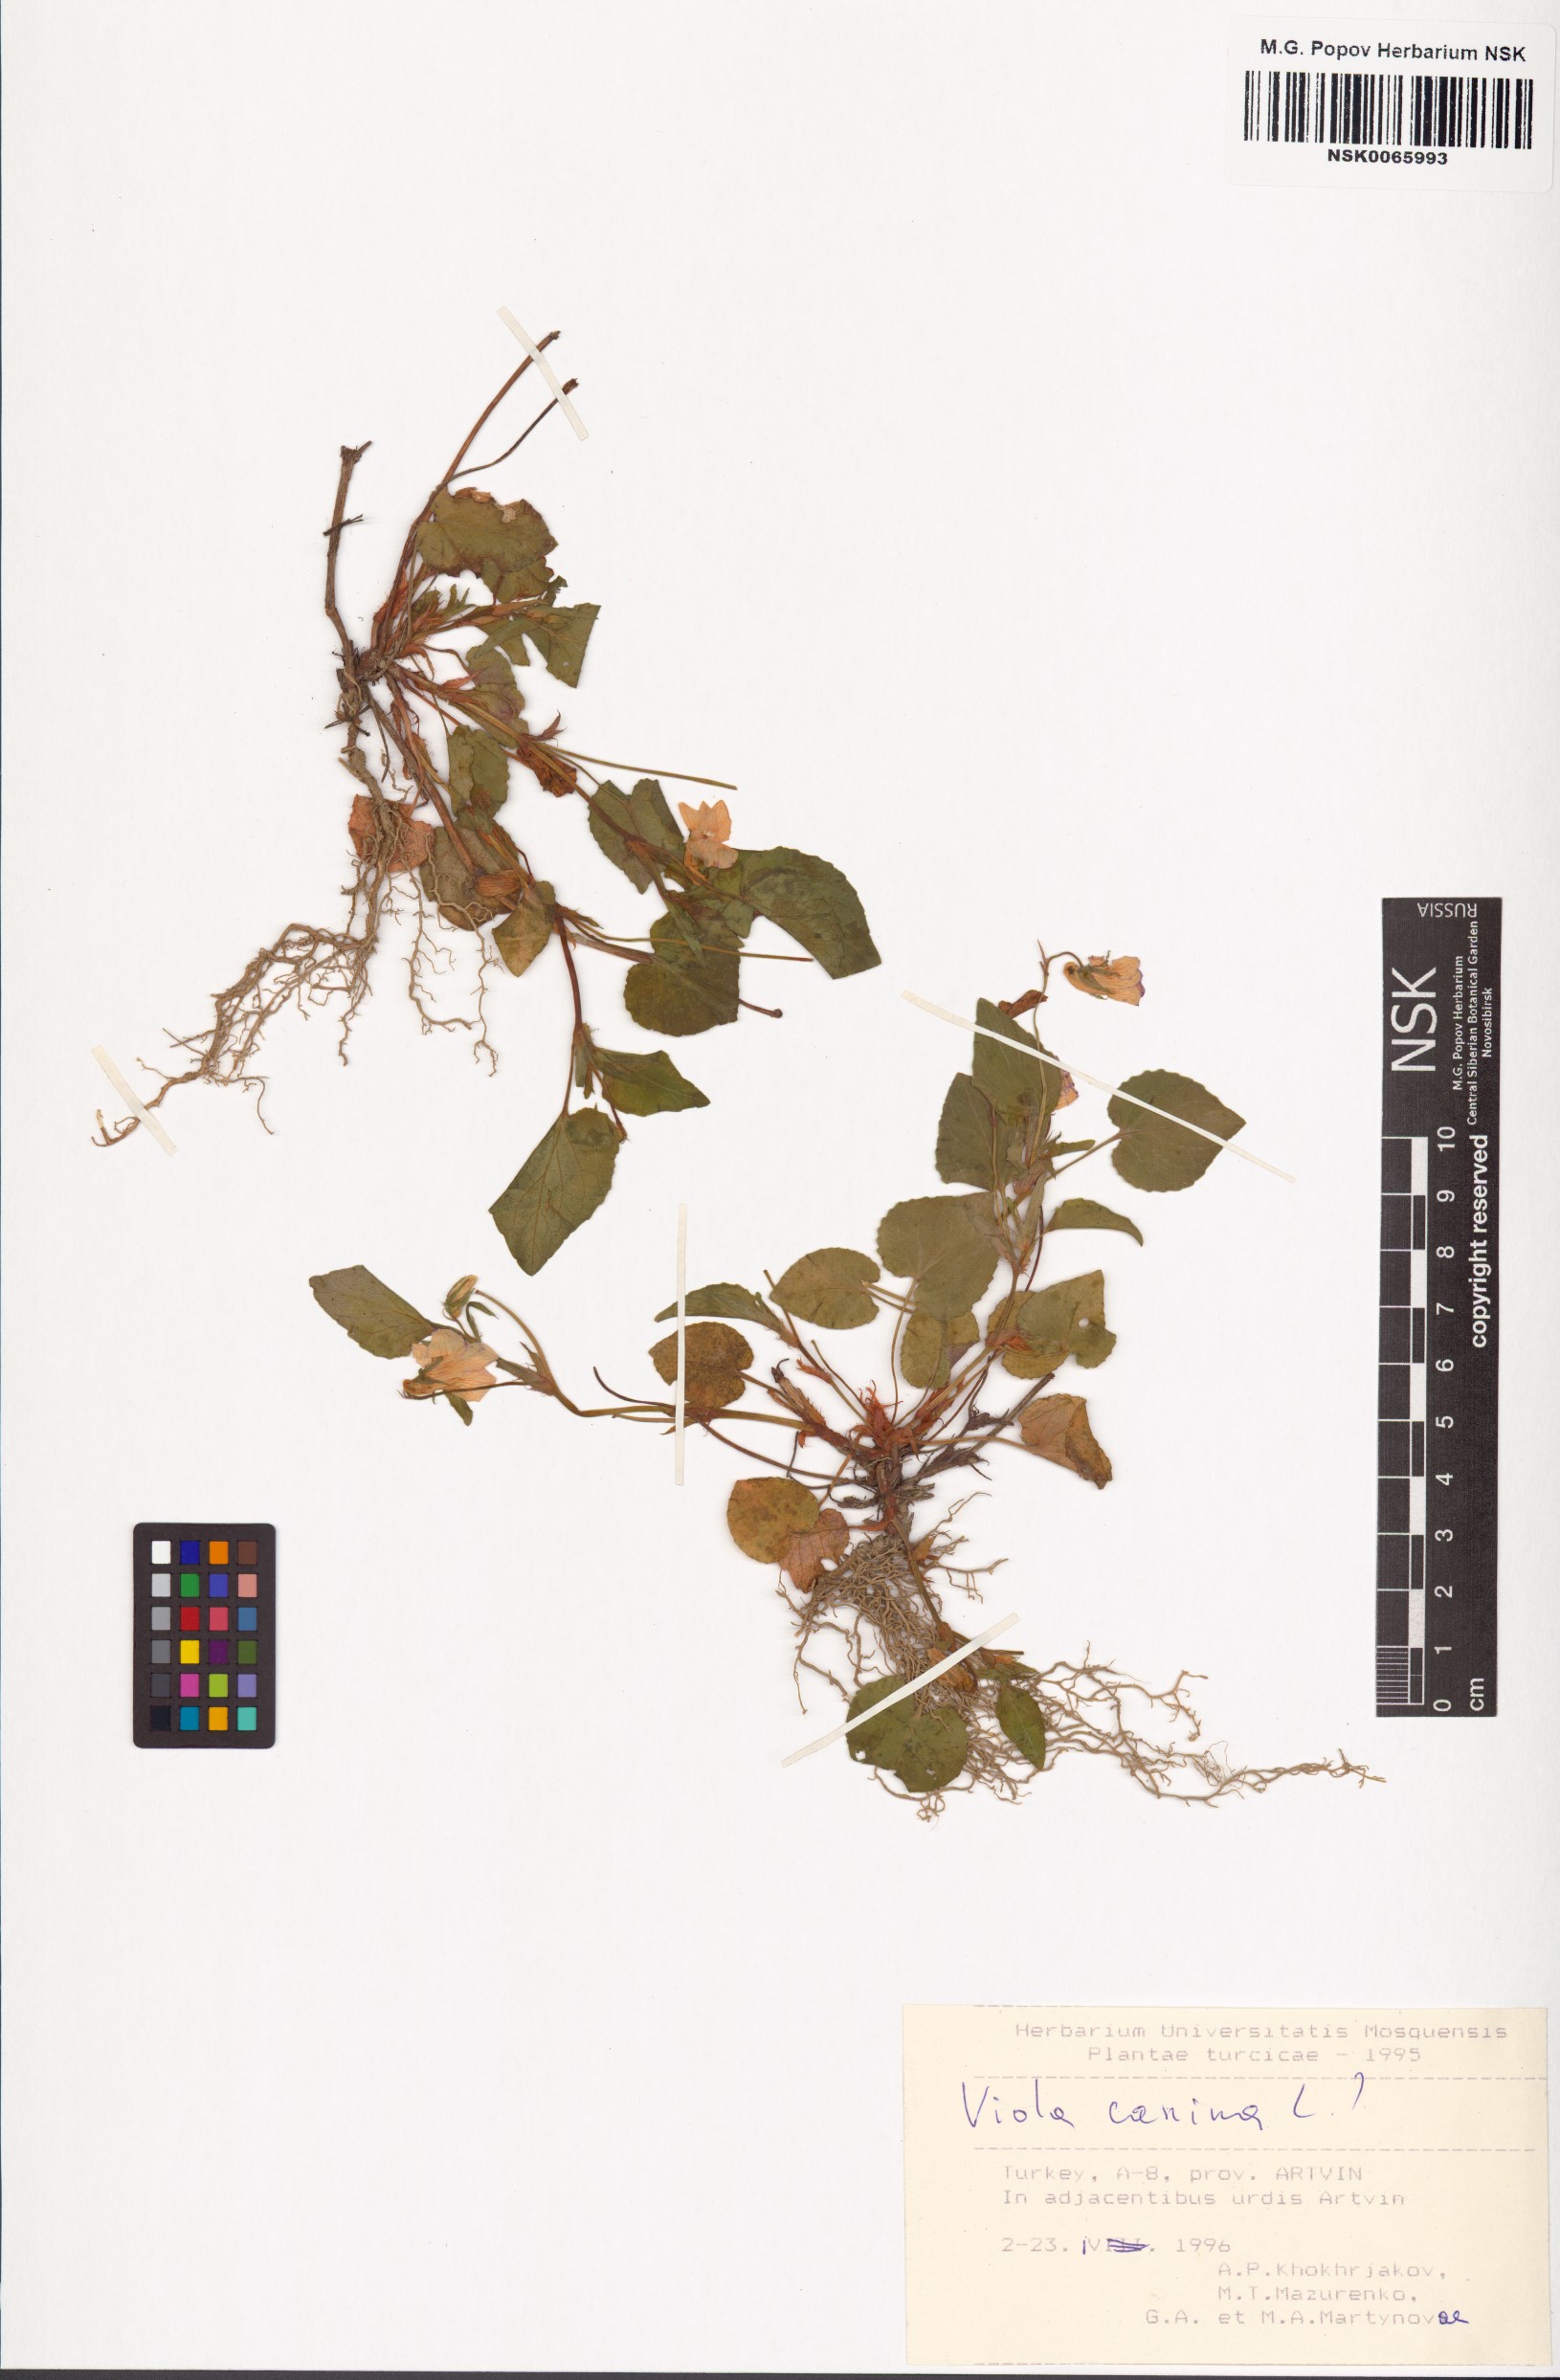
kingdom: Plantae
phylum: Tracheophyta
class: Magnoliopsida
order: Malpighiales
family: Violaceae
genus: Viola
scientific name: Viola canina
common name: Heath dog-violet
